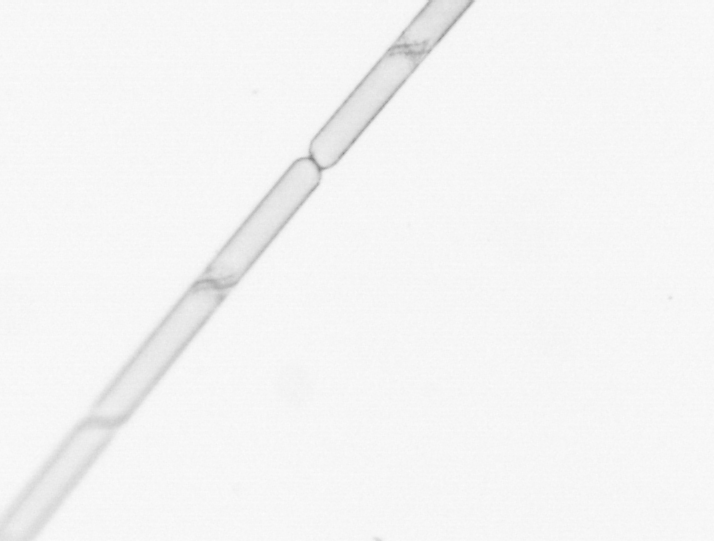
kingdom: Chromista
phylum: Ochrophyta
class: Bacillariophyceae
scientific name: Bacillariophyceae
